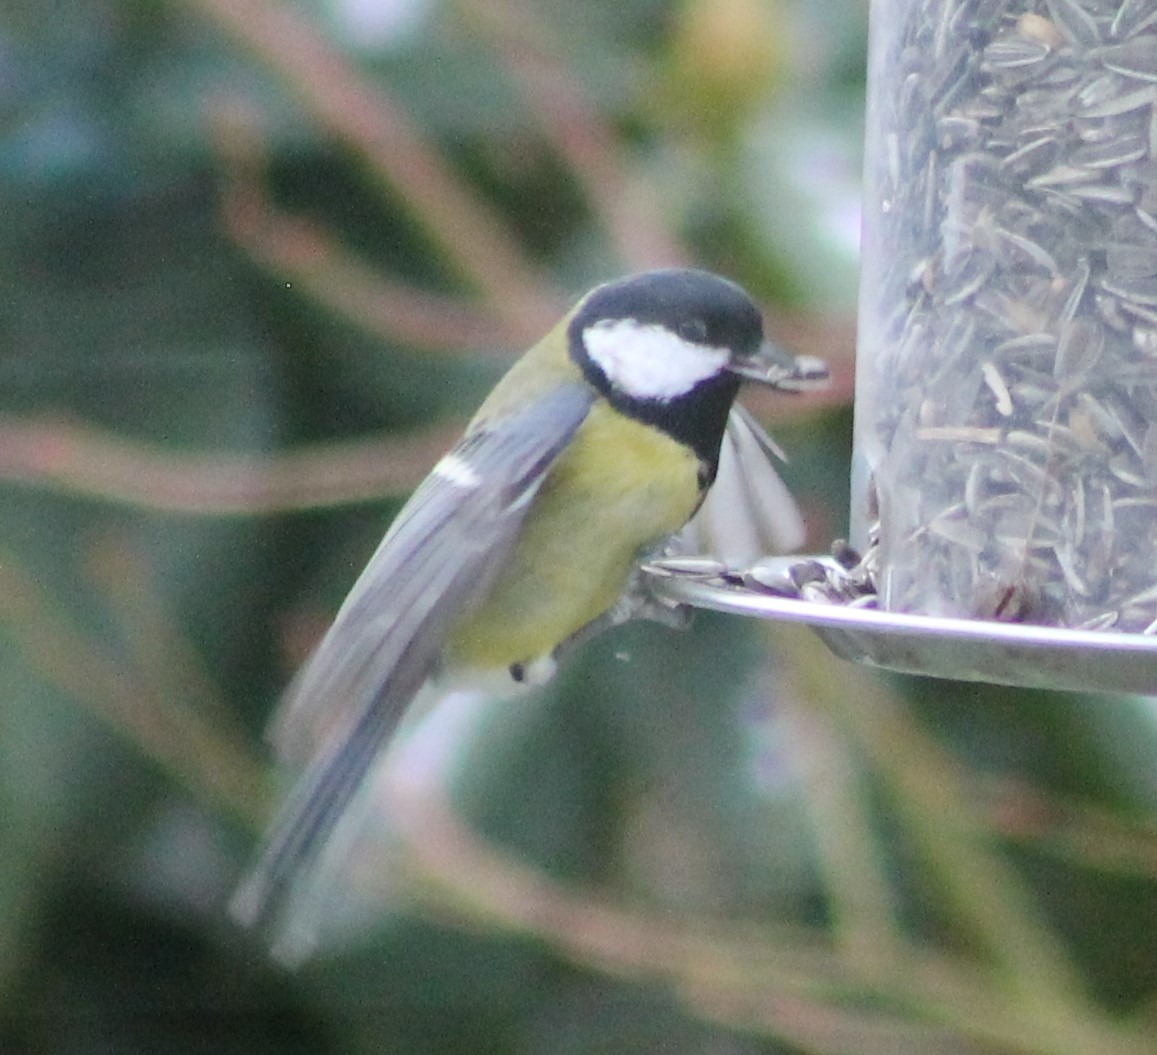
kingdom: Animalia
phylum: Chordata
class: Aves
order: Passeriformes
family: Paridae
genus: Parus
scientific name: Parus major
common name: Musvit
